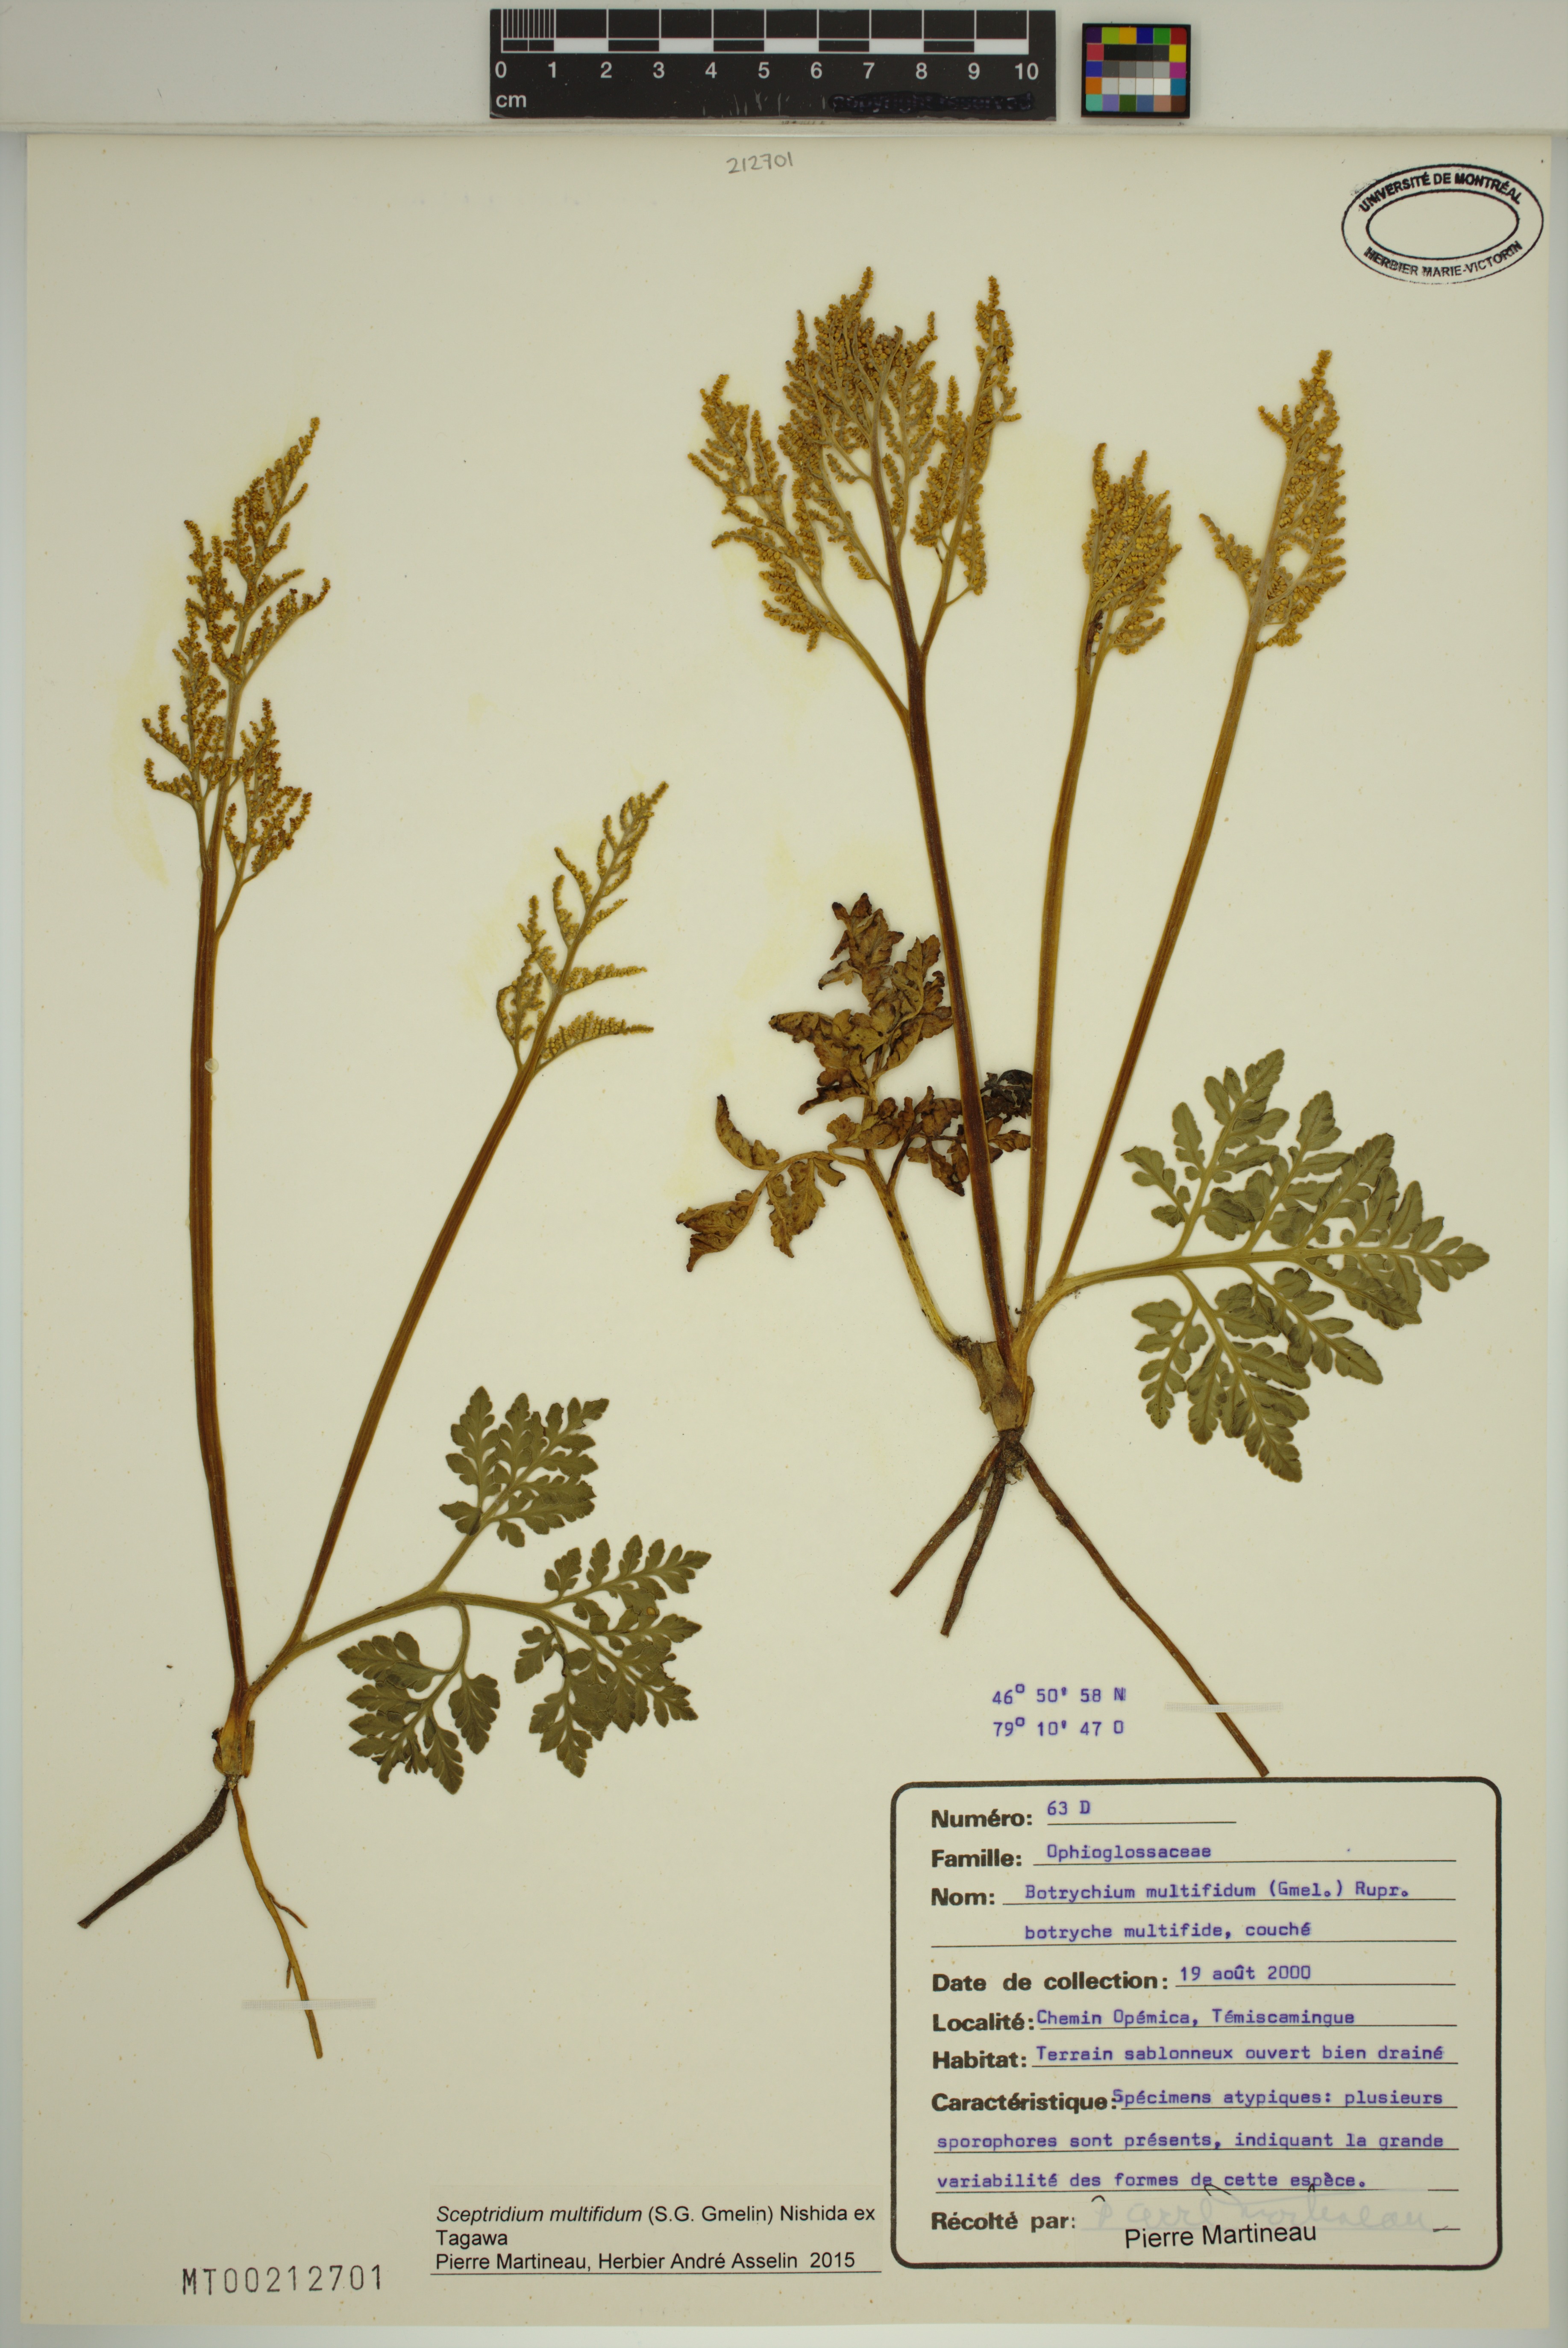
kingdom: Plantae
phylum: Tracheophyta
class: Polypodiopsida
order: Ophioglossales
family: Ophioglossaceae
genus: Sceptridium
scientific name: Sceptridium multifidum
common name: Leathery grape fern
